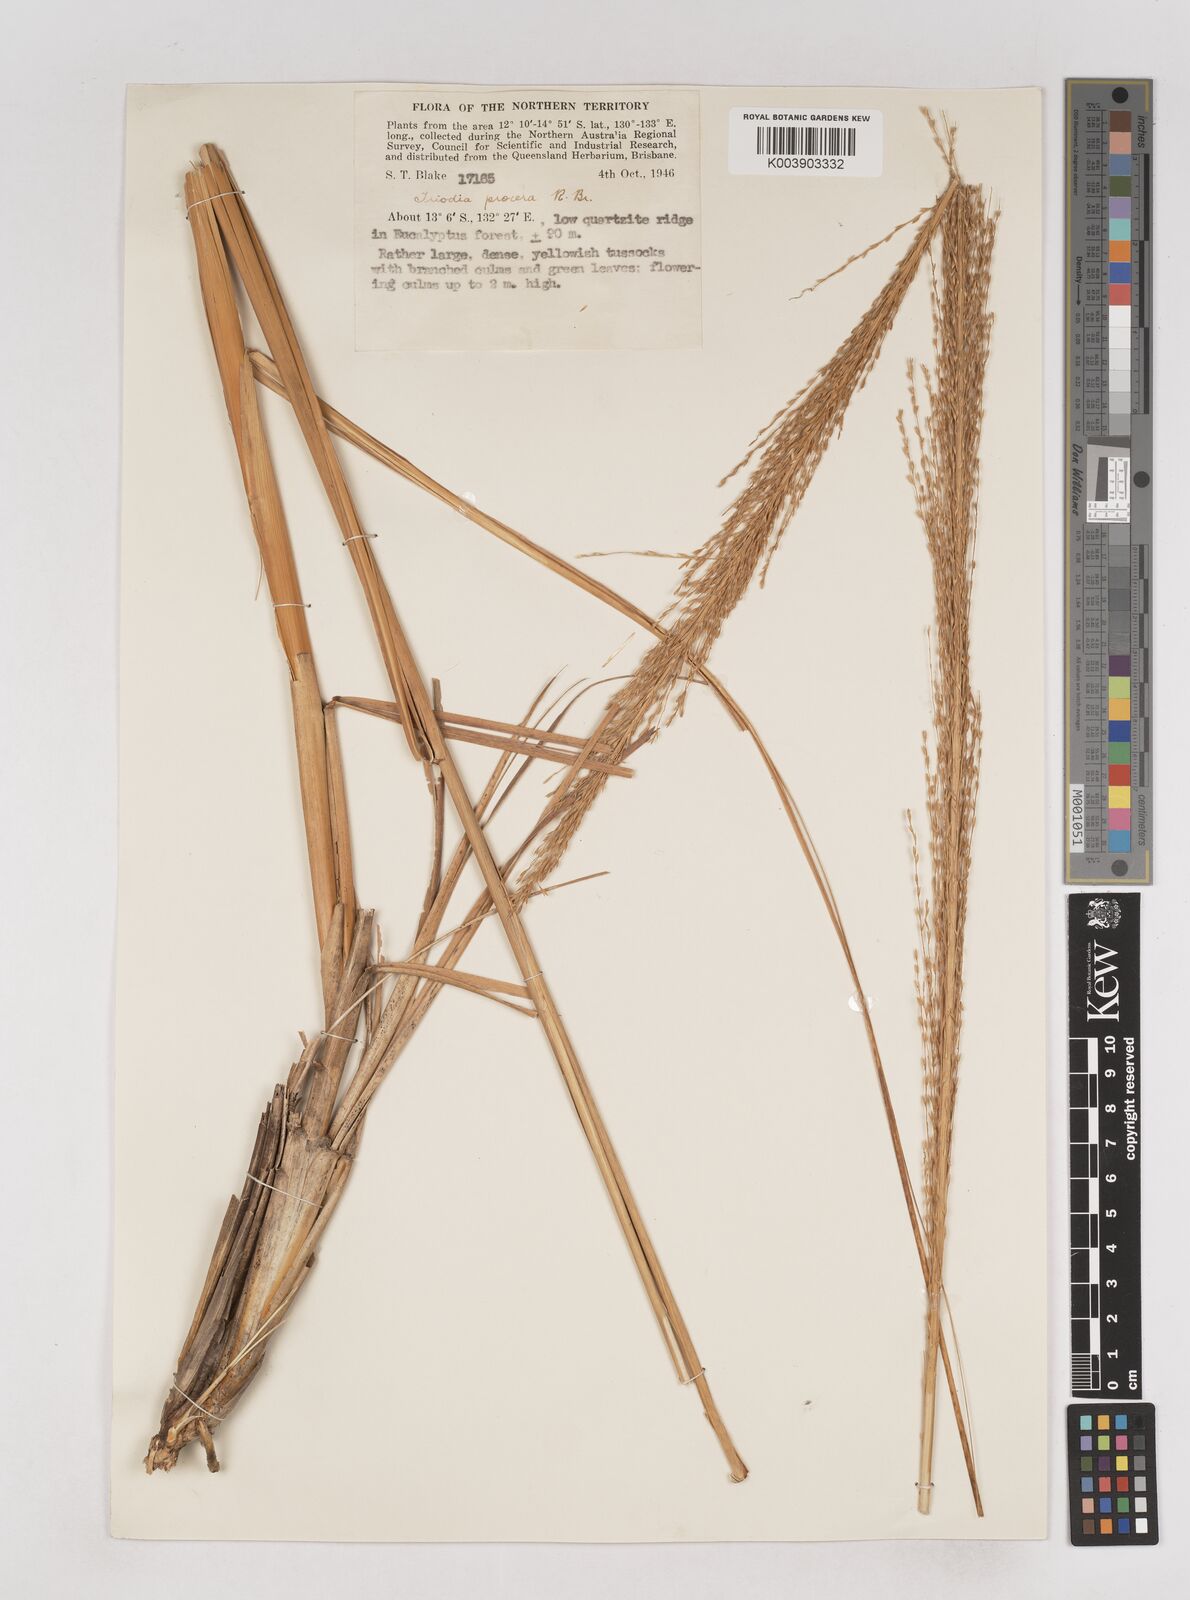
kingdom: Plantae
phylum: Tracheophyta
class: Liliopsida
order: Poales
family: Poaceae
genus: Triodia
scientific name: Triodia procera
